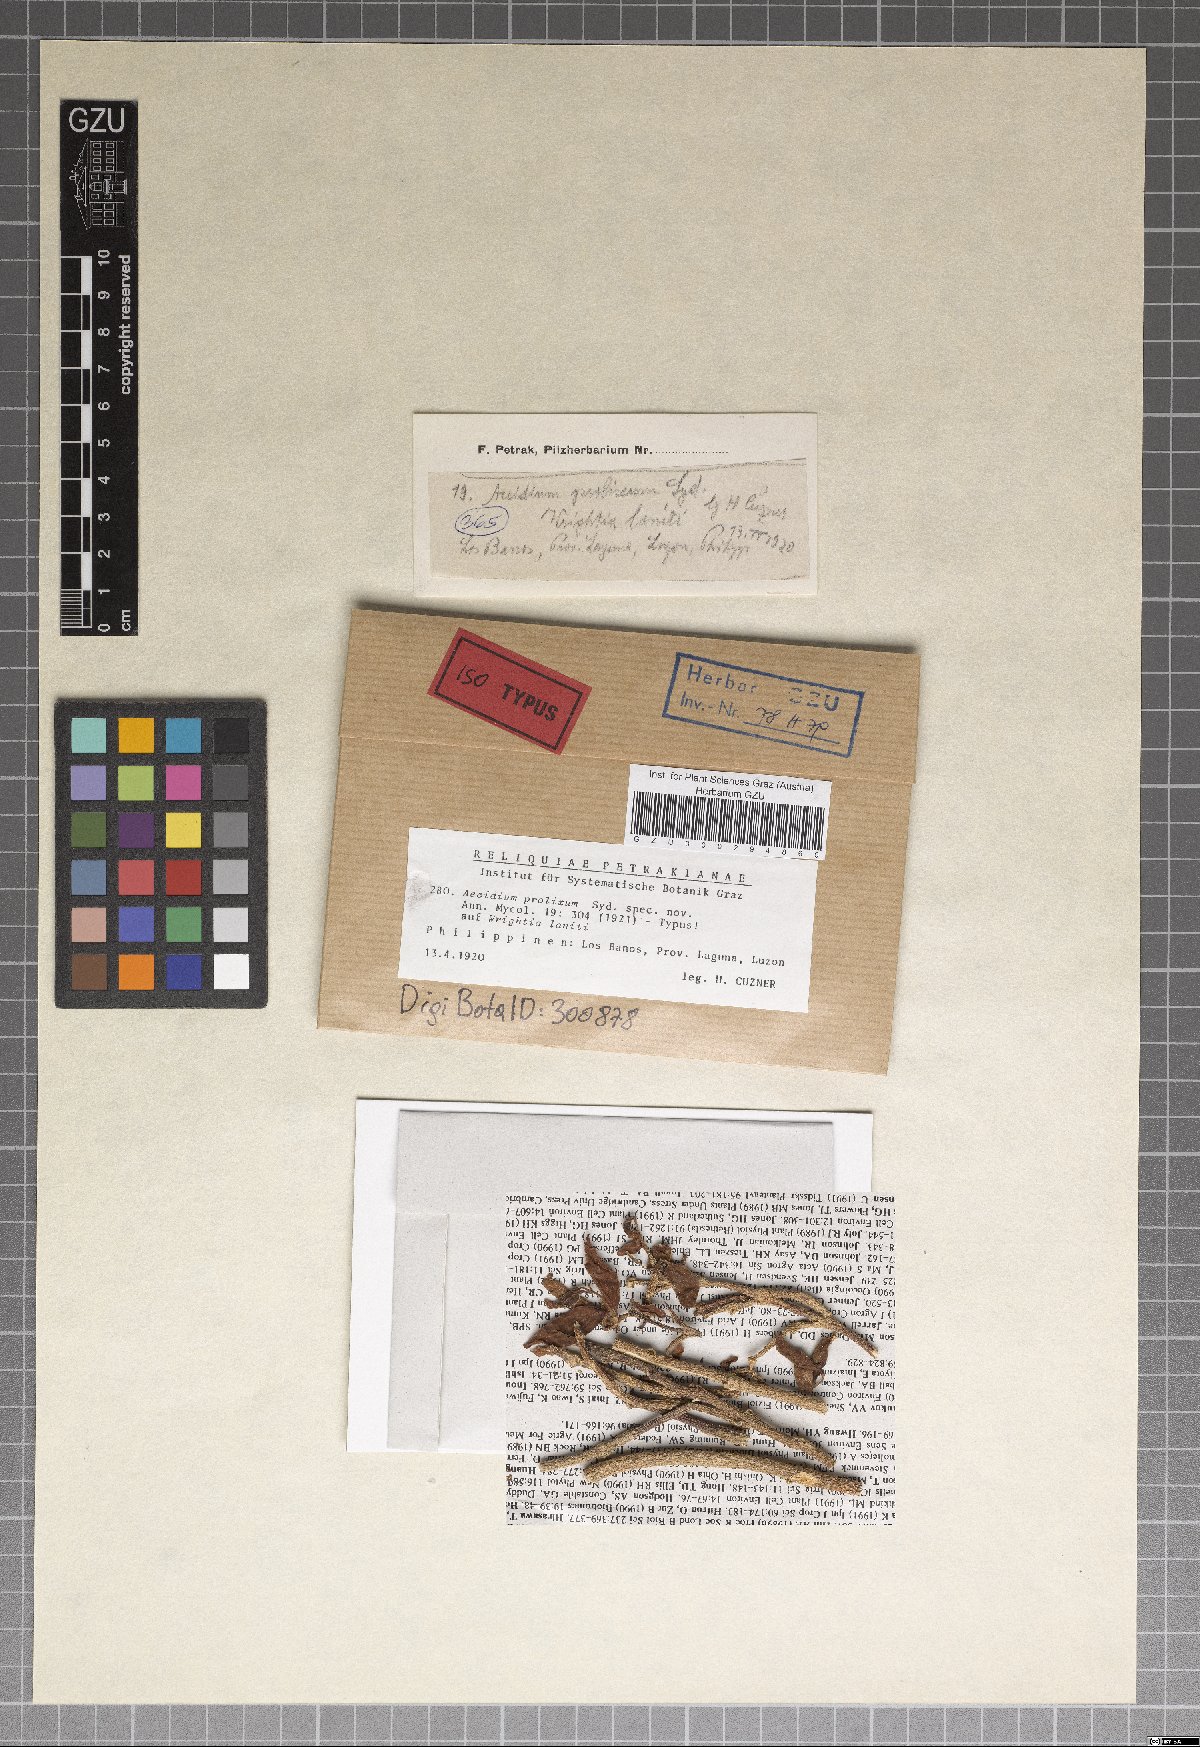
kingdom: Fungi
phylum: Basidiomycota
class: Pucciniomycetes
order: Pucciniales
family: Pucciniaceae
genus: Aecidium
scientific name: Aecidium prolixum
